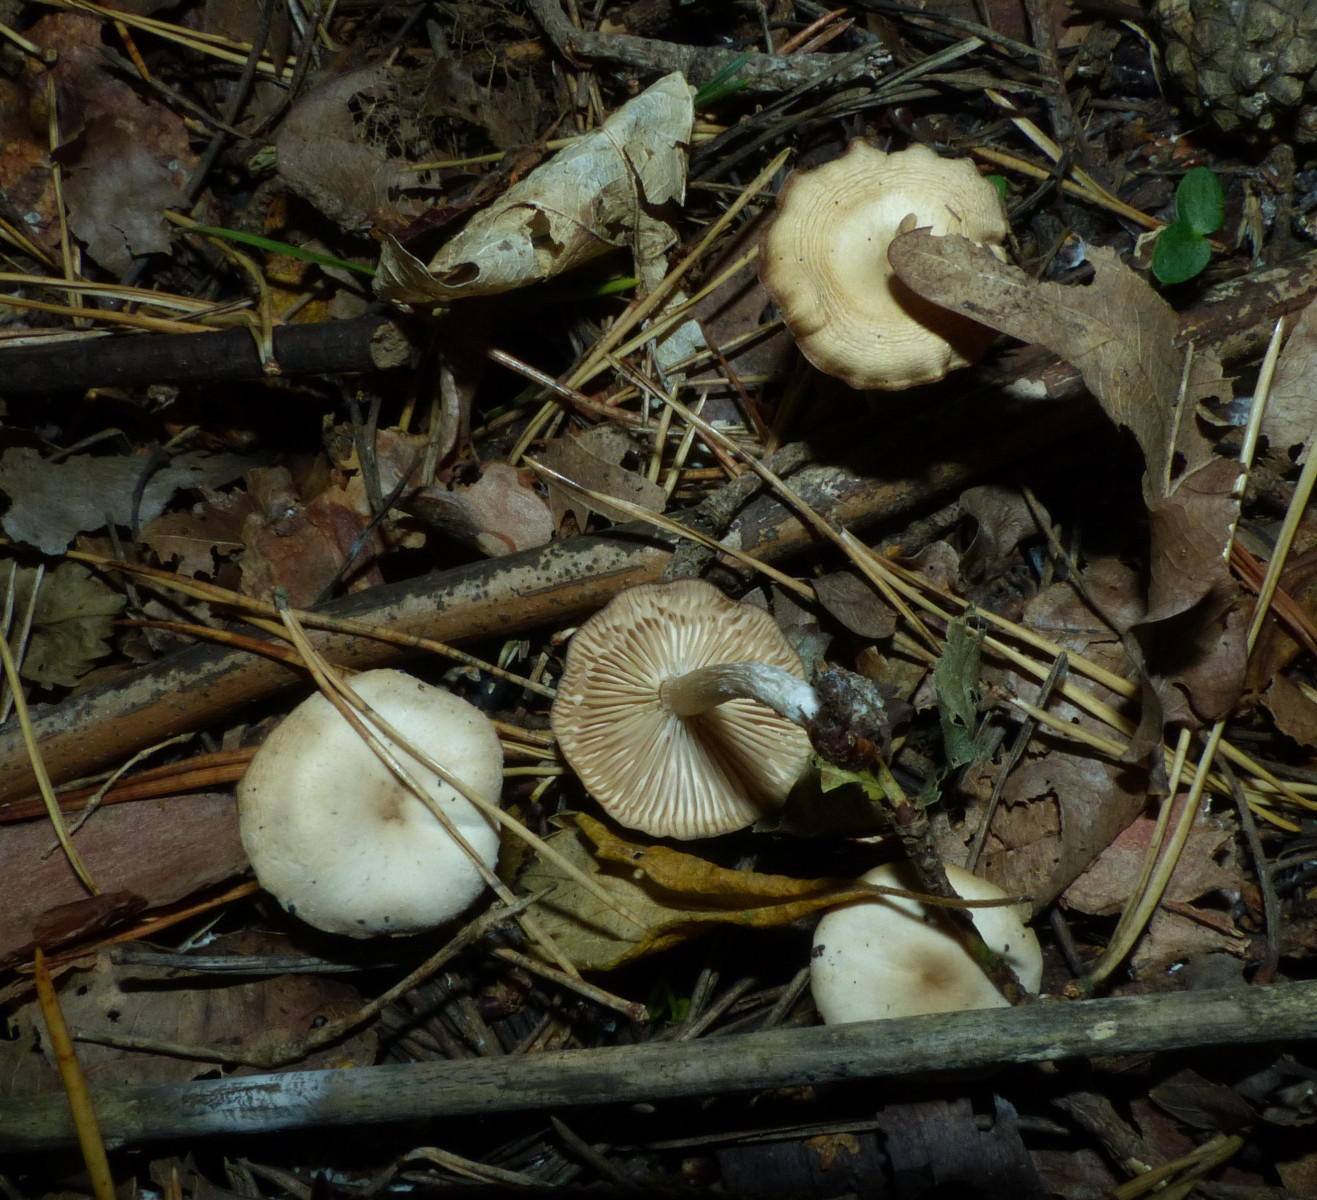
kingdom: Fungi
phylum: Basidiomycota
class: Agaricomycetes
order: Agaricales
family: Tricholomataceae
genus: Clitocybe
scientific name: Clitocybe fragrans
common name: vellugtende tragthat
